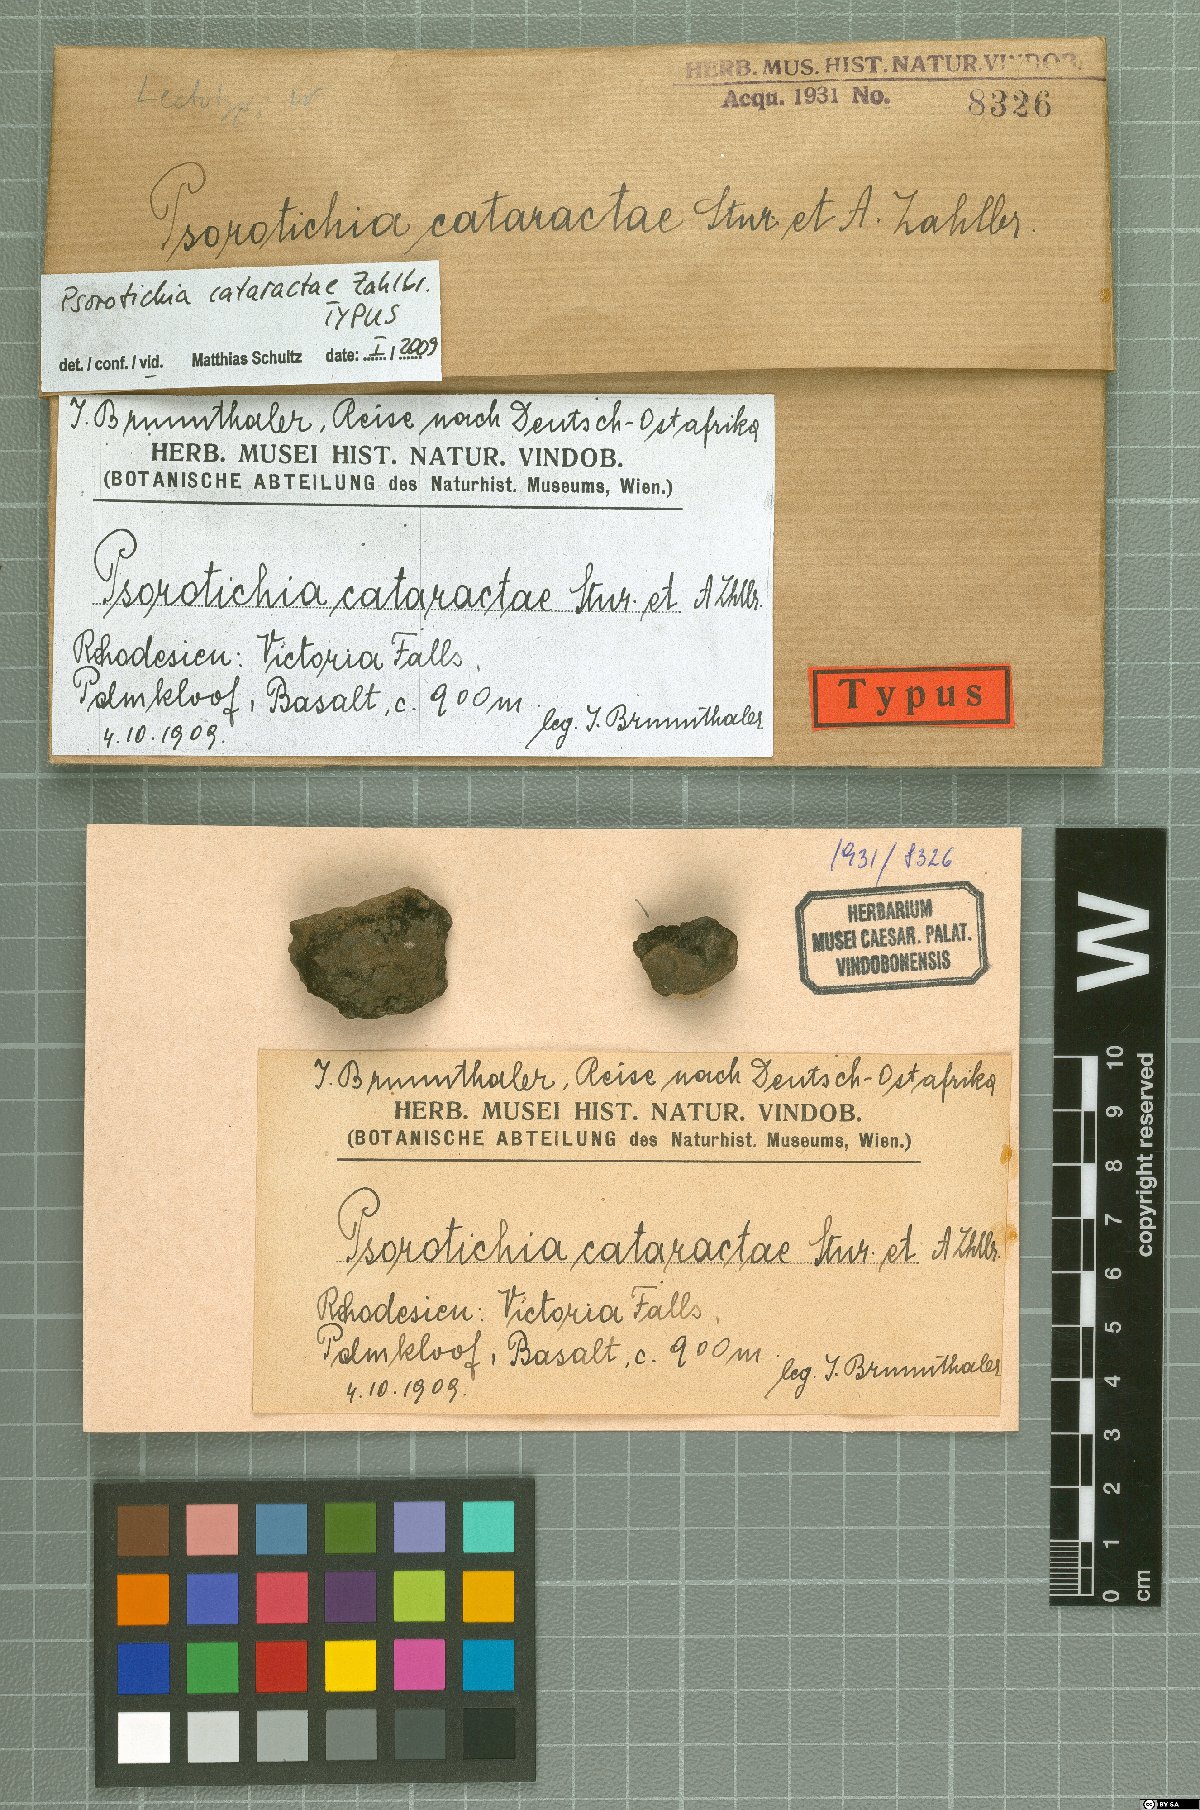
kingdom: Fungi
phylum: Ascomycota
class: Lichinomycetes
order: Lichinales
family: Lichinaceae
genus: Psorotichia
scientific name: Psorotichia
